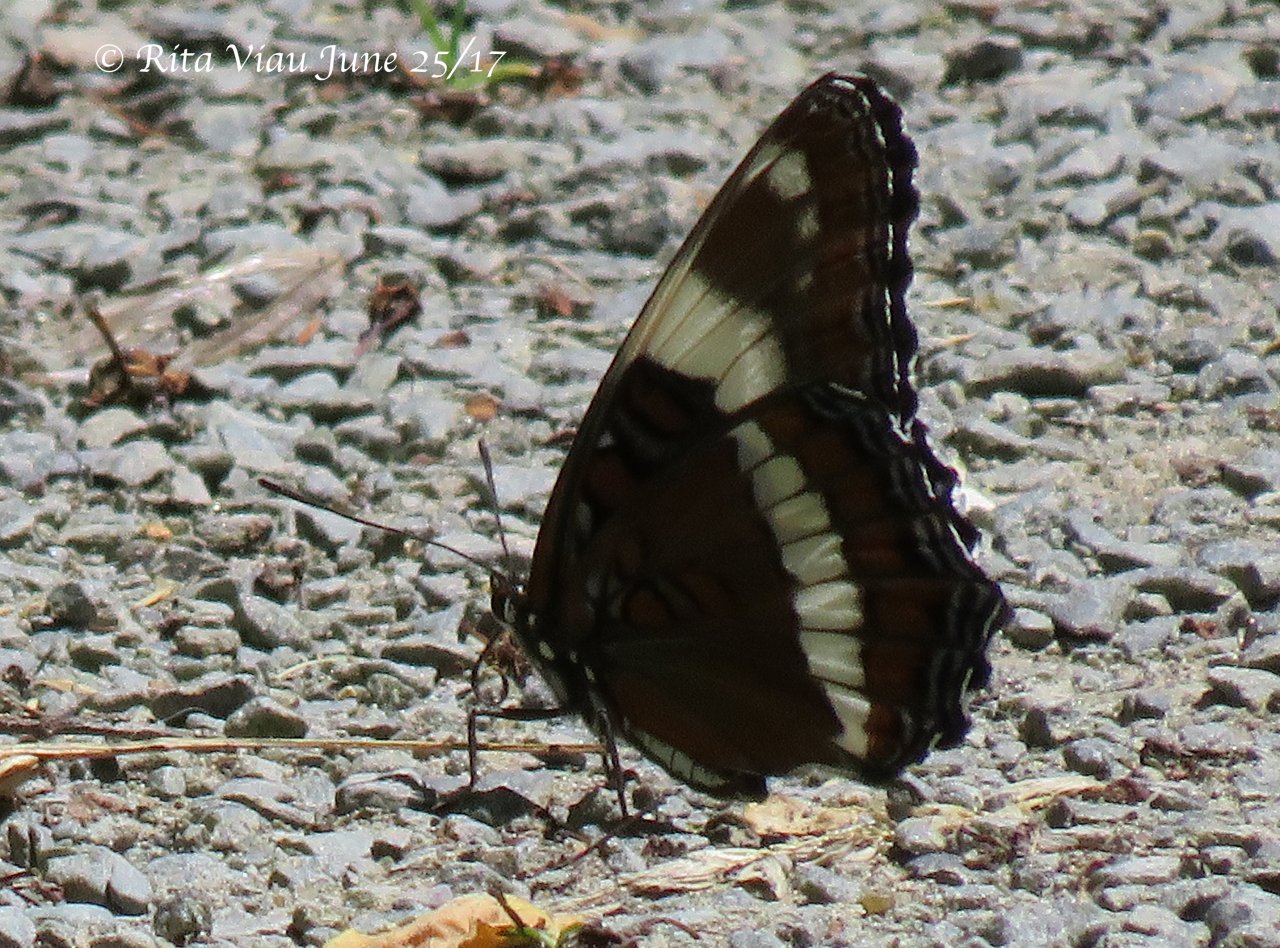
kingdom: Animalia
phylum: Arthropoda
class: Insecta
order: Lepidoptera
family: Nymphalidae
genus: Limenitis
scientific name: Limenitis arthemis
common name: Red-spotted Admiral
